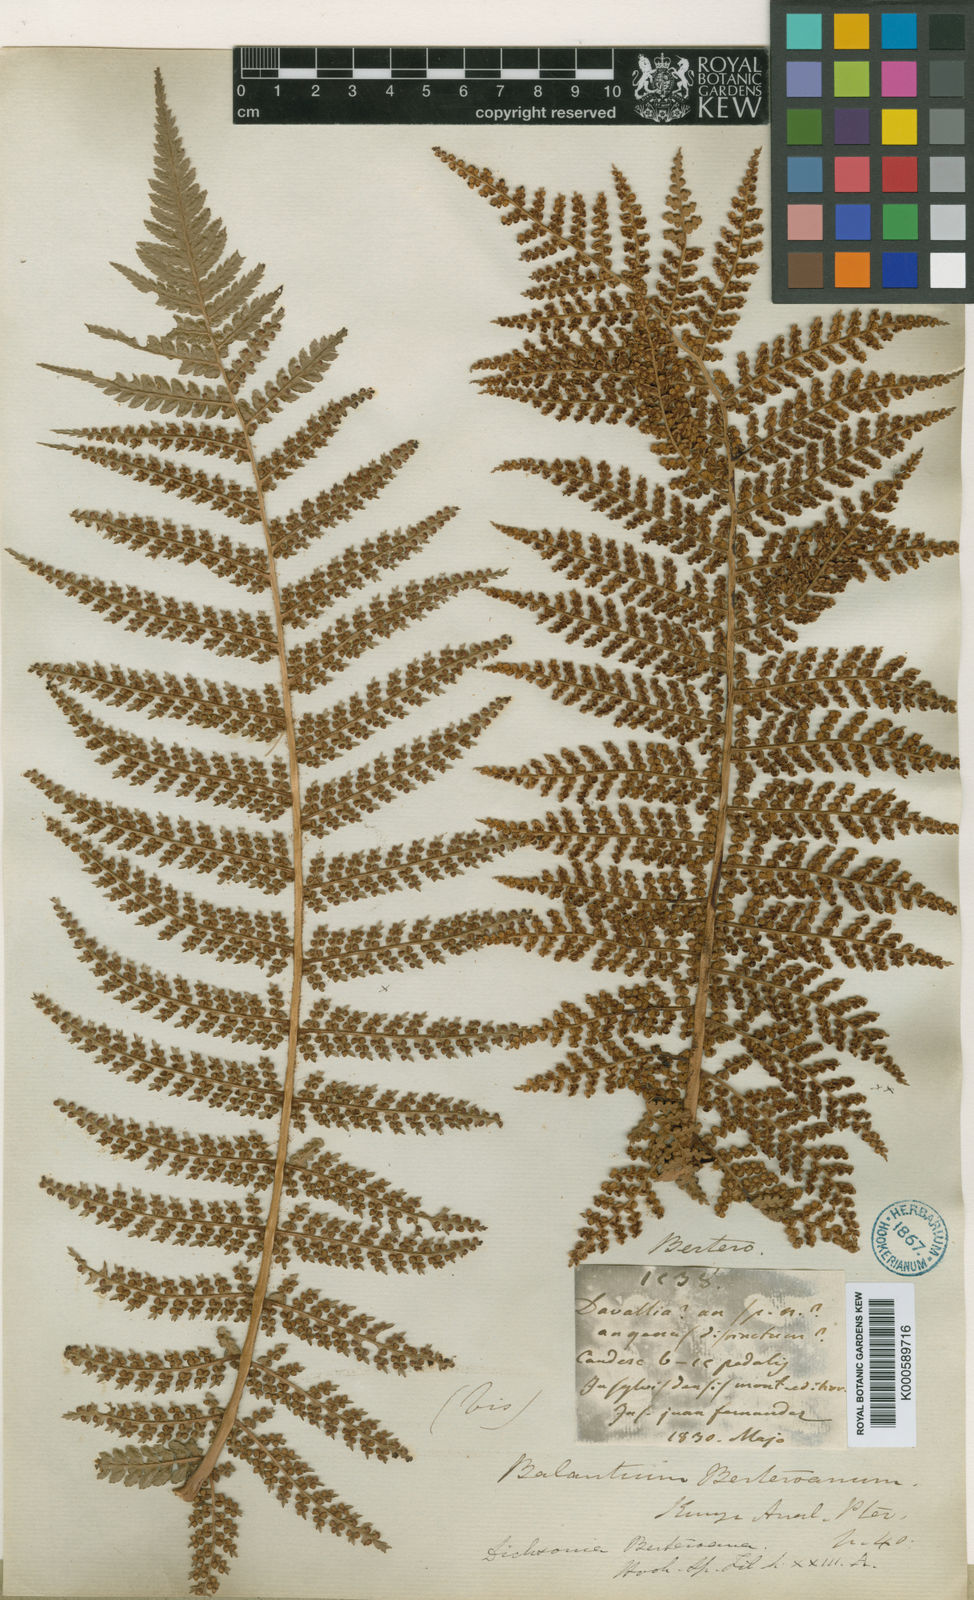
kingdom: Plantae
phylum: Tracheophyta
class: Polypodiopsida
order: Cyatheales
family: Dicksoniaceae
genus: Dicksonia
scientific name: Dicksonia berteroana
